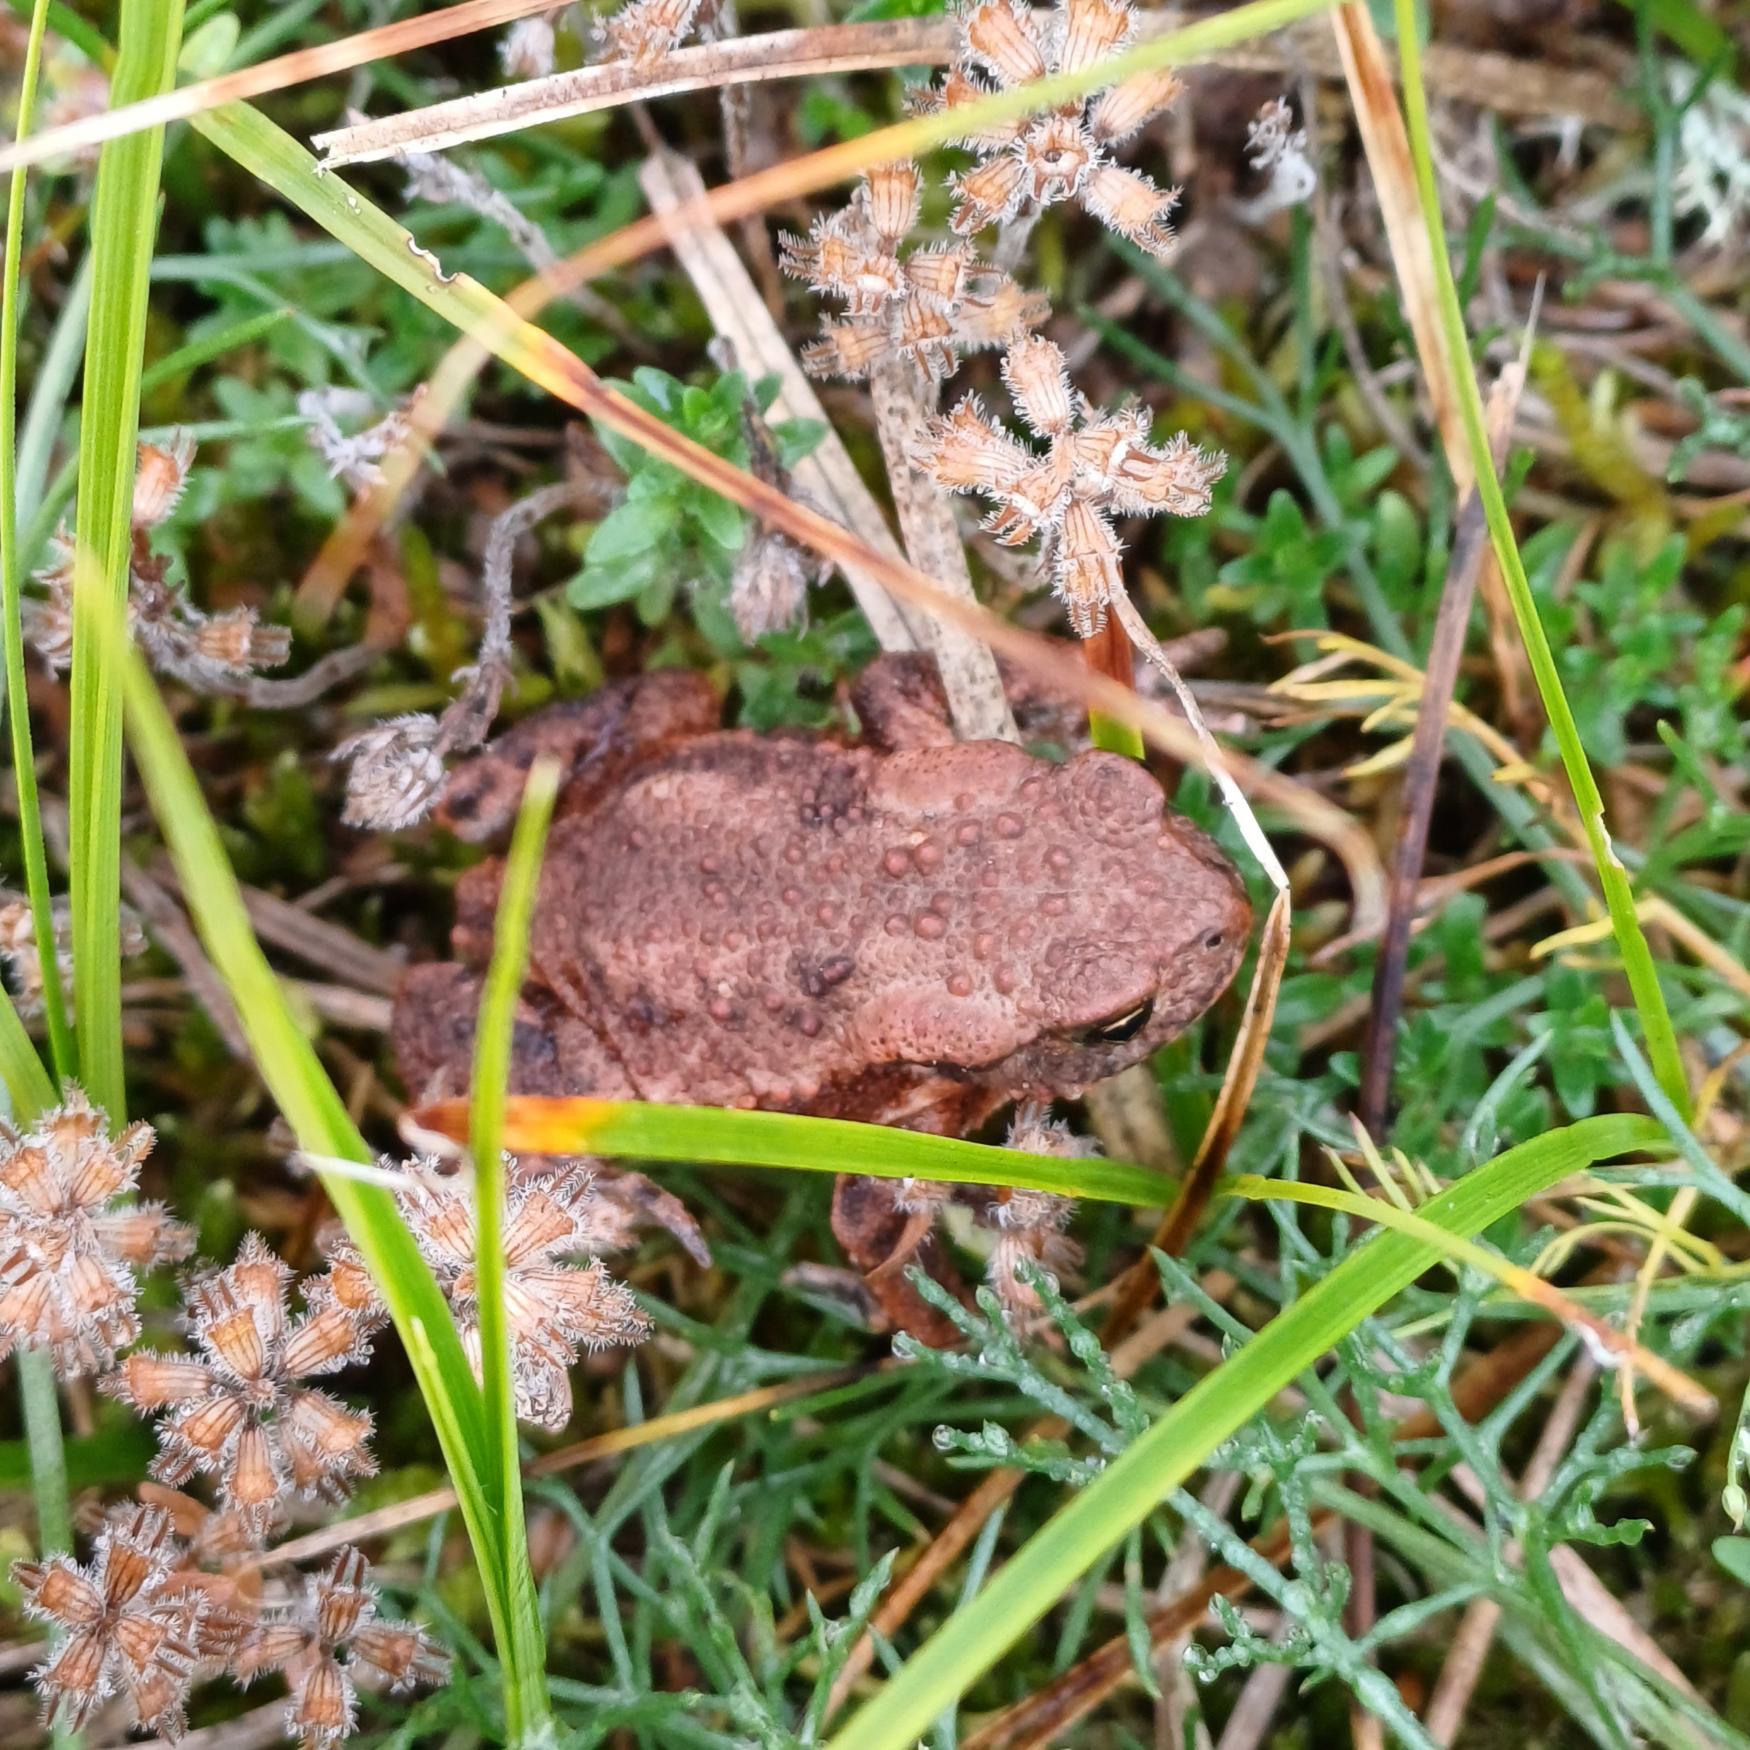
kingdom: Animalia
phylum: Chordata
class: Amphibia
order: Anura
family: Bufonidae
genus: Bufo
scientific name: Bufo bufo
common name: Skrubtudse
